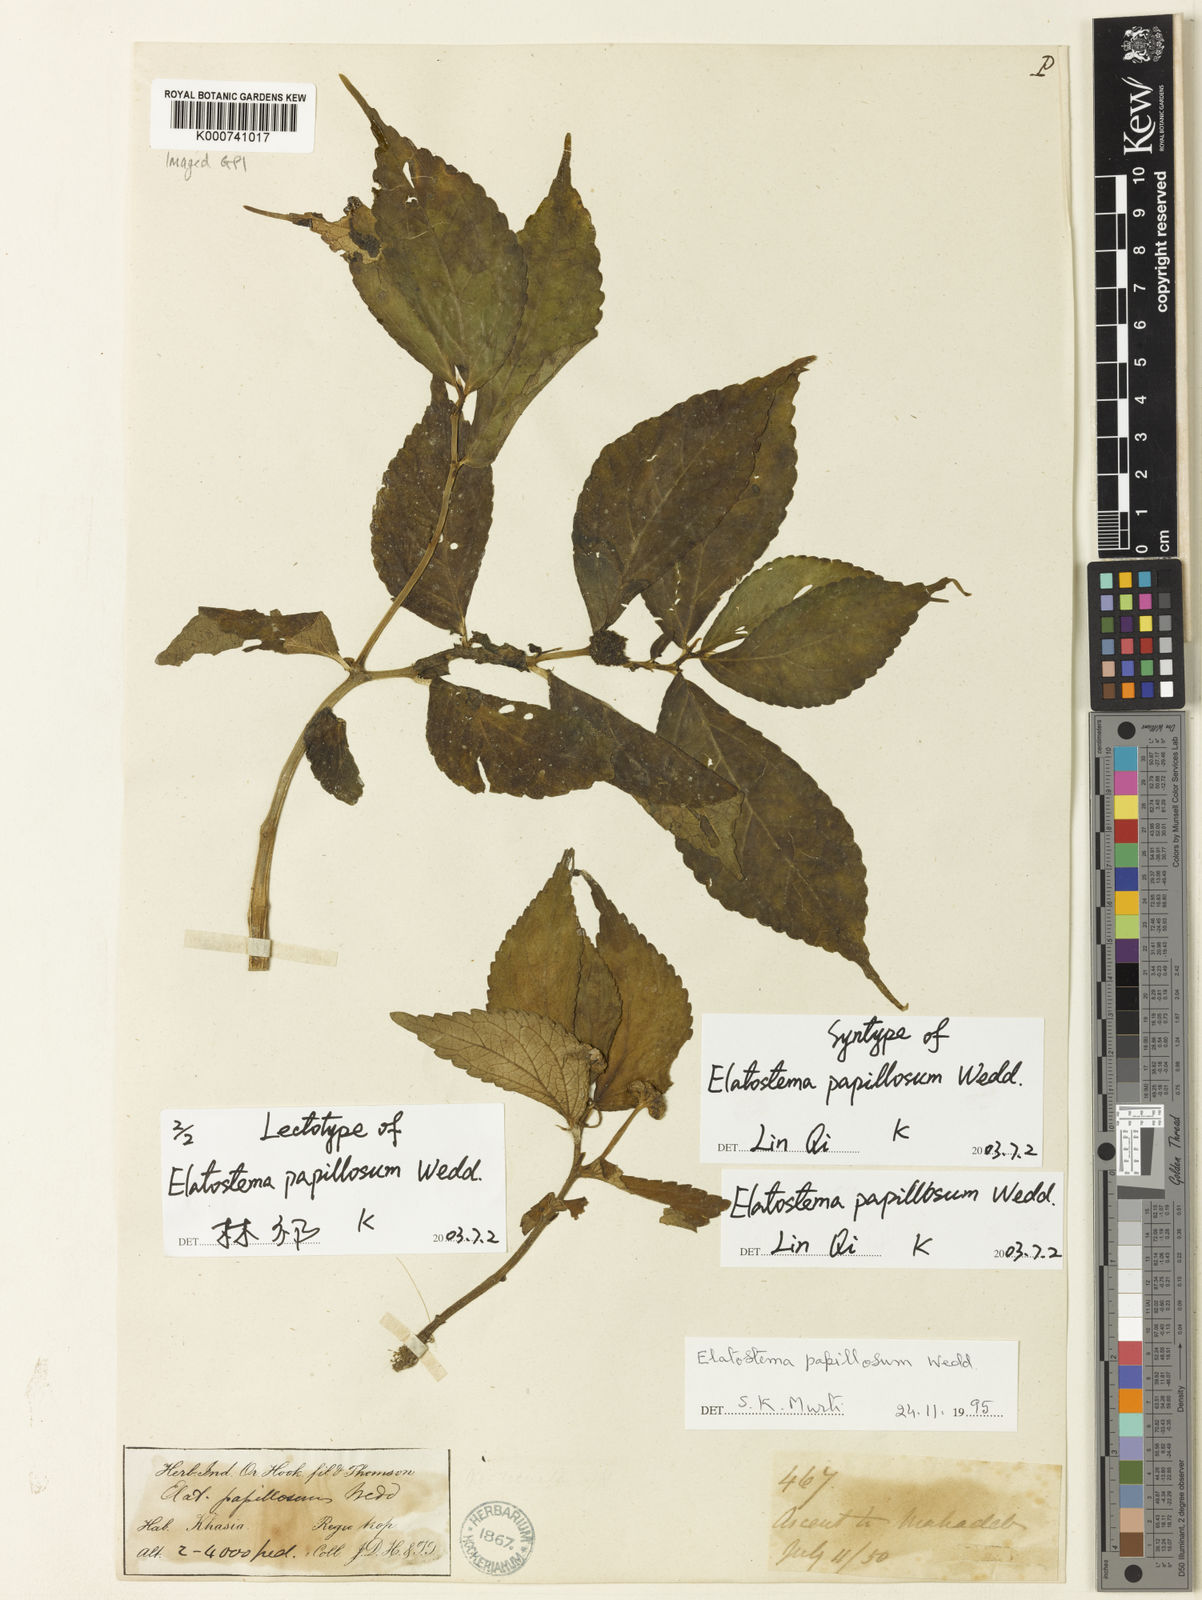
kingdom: Plantae
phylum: Tracheophyta
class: Magnoliopsida
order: Rosales
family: Urticaceae
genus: Elatostema
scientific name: Elatostema papillosum
